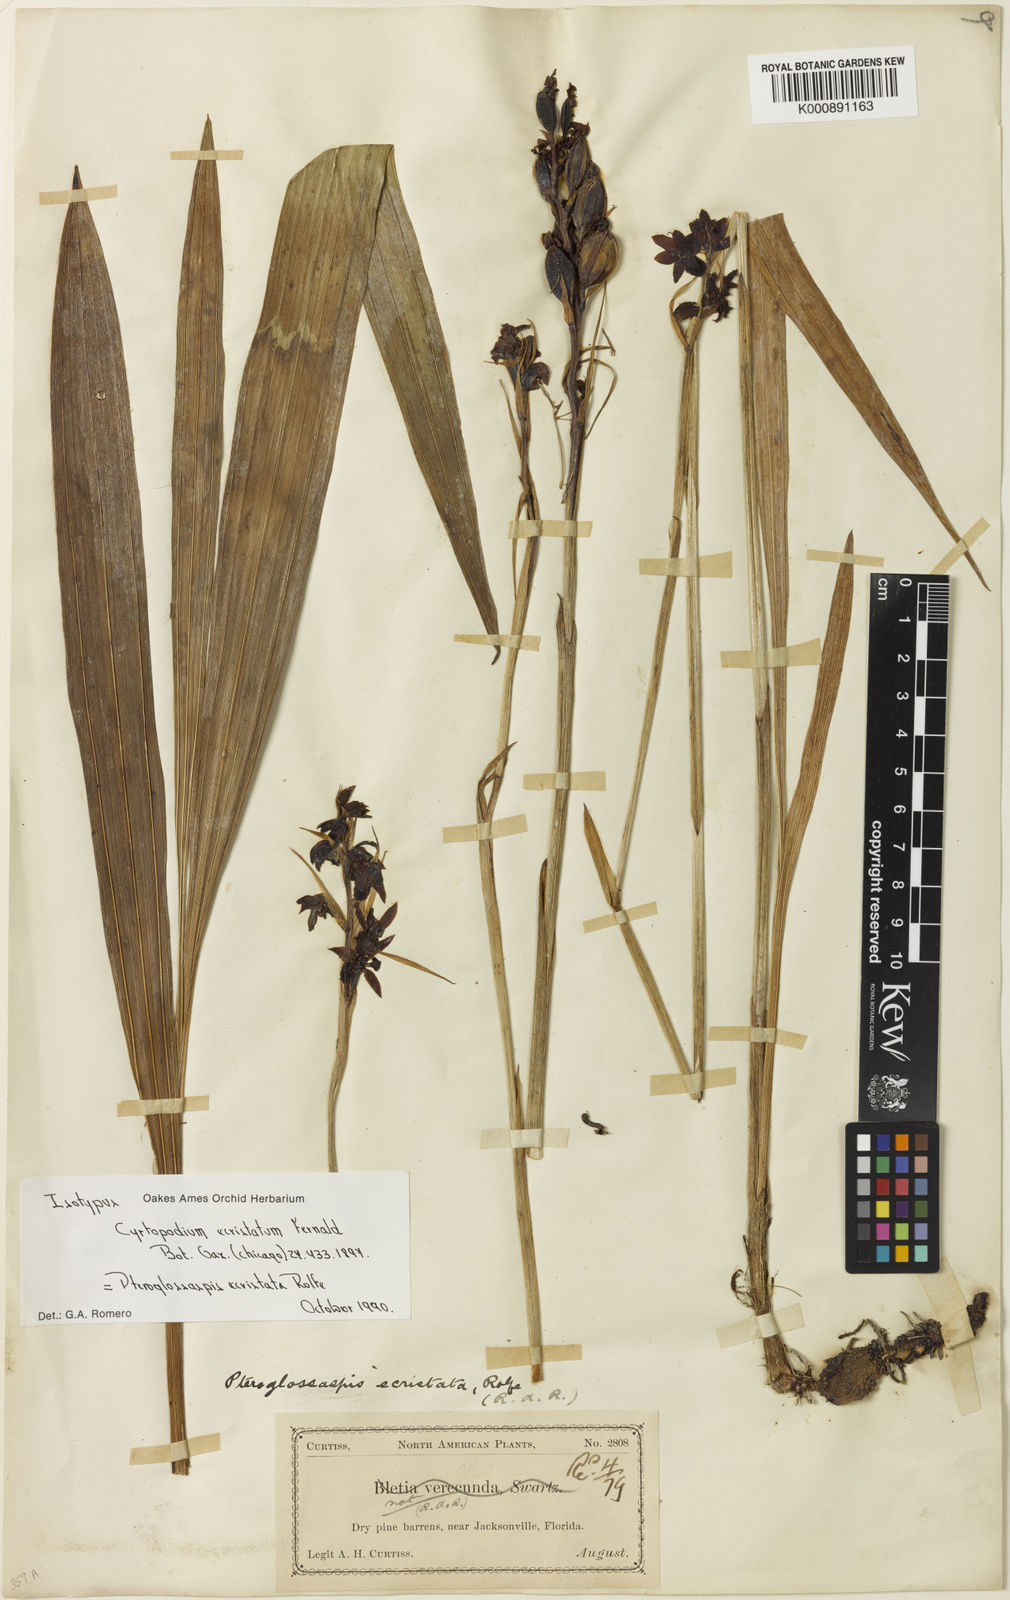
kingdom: Plantae
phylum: Tracheophyta
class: Liliopsida
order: Asparagales
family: Orchidaceae
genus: Eulophia
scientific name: Eulophia ecristata
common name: Giant orchid
